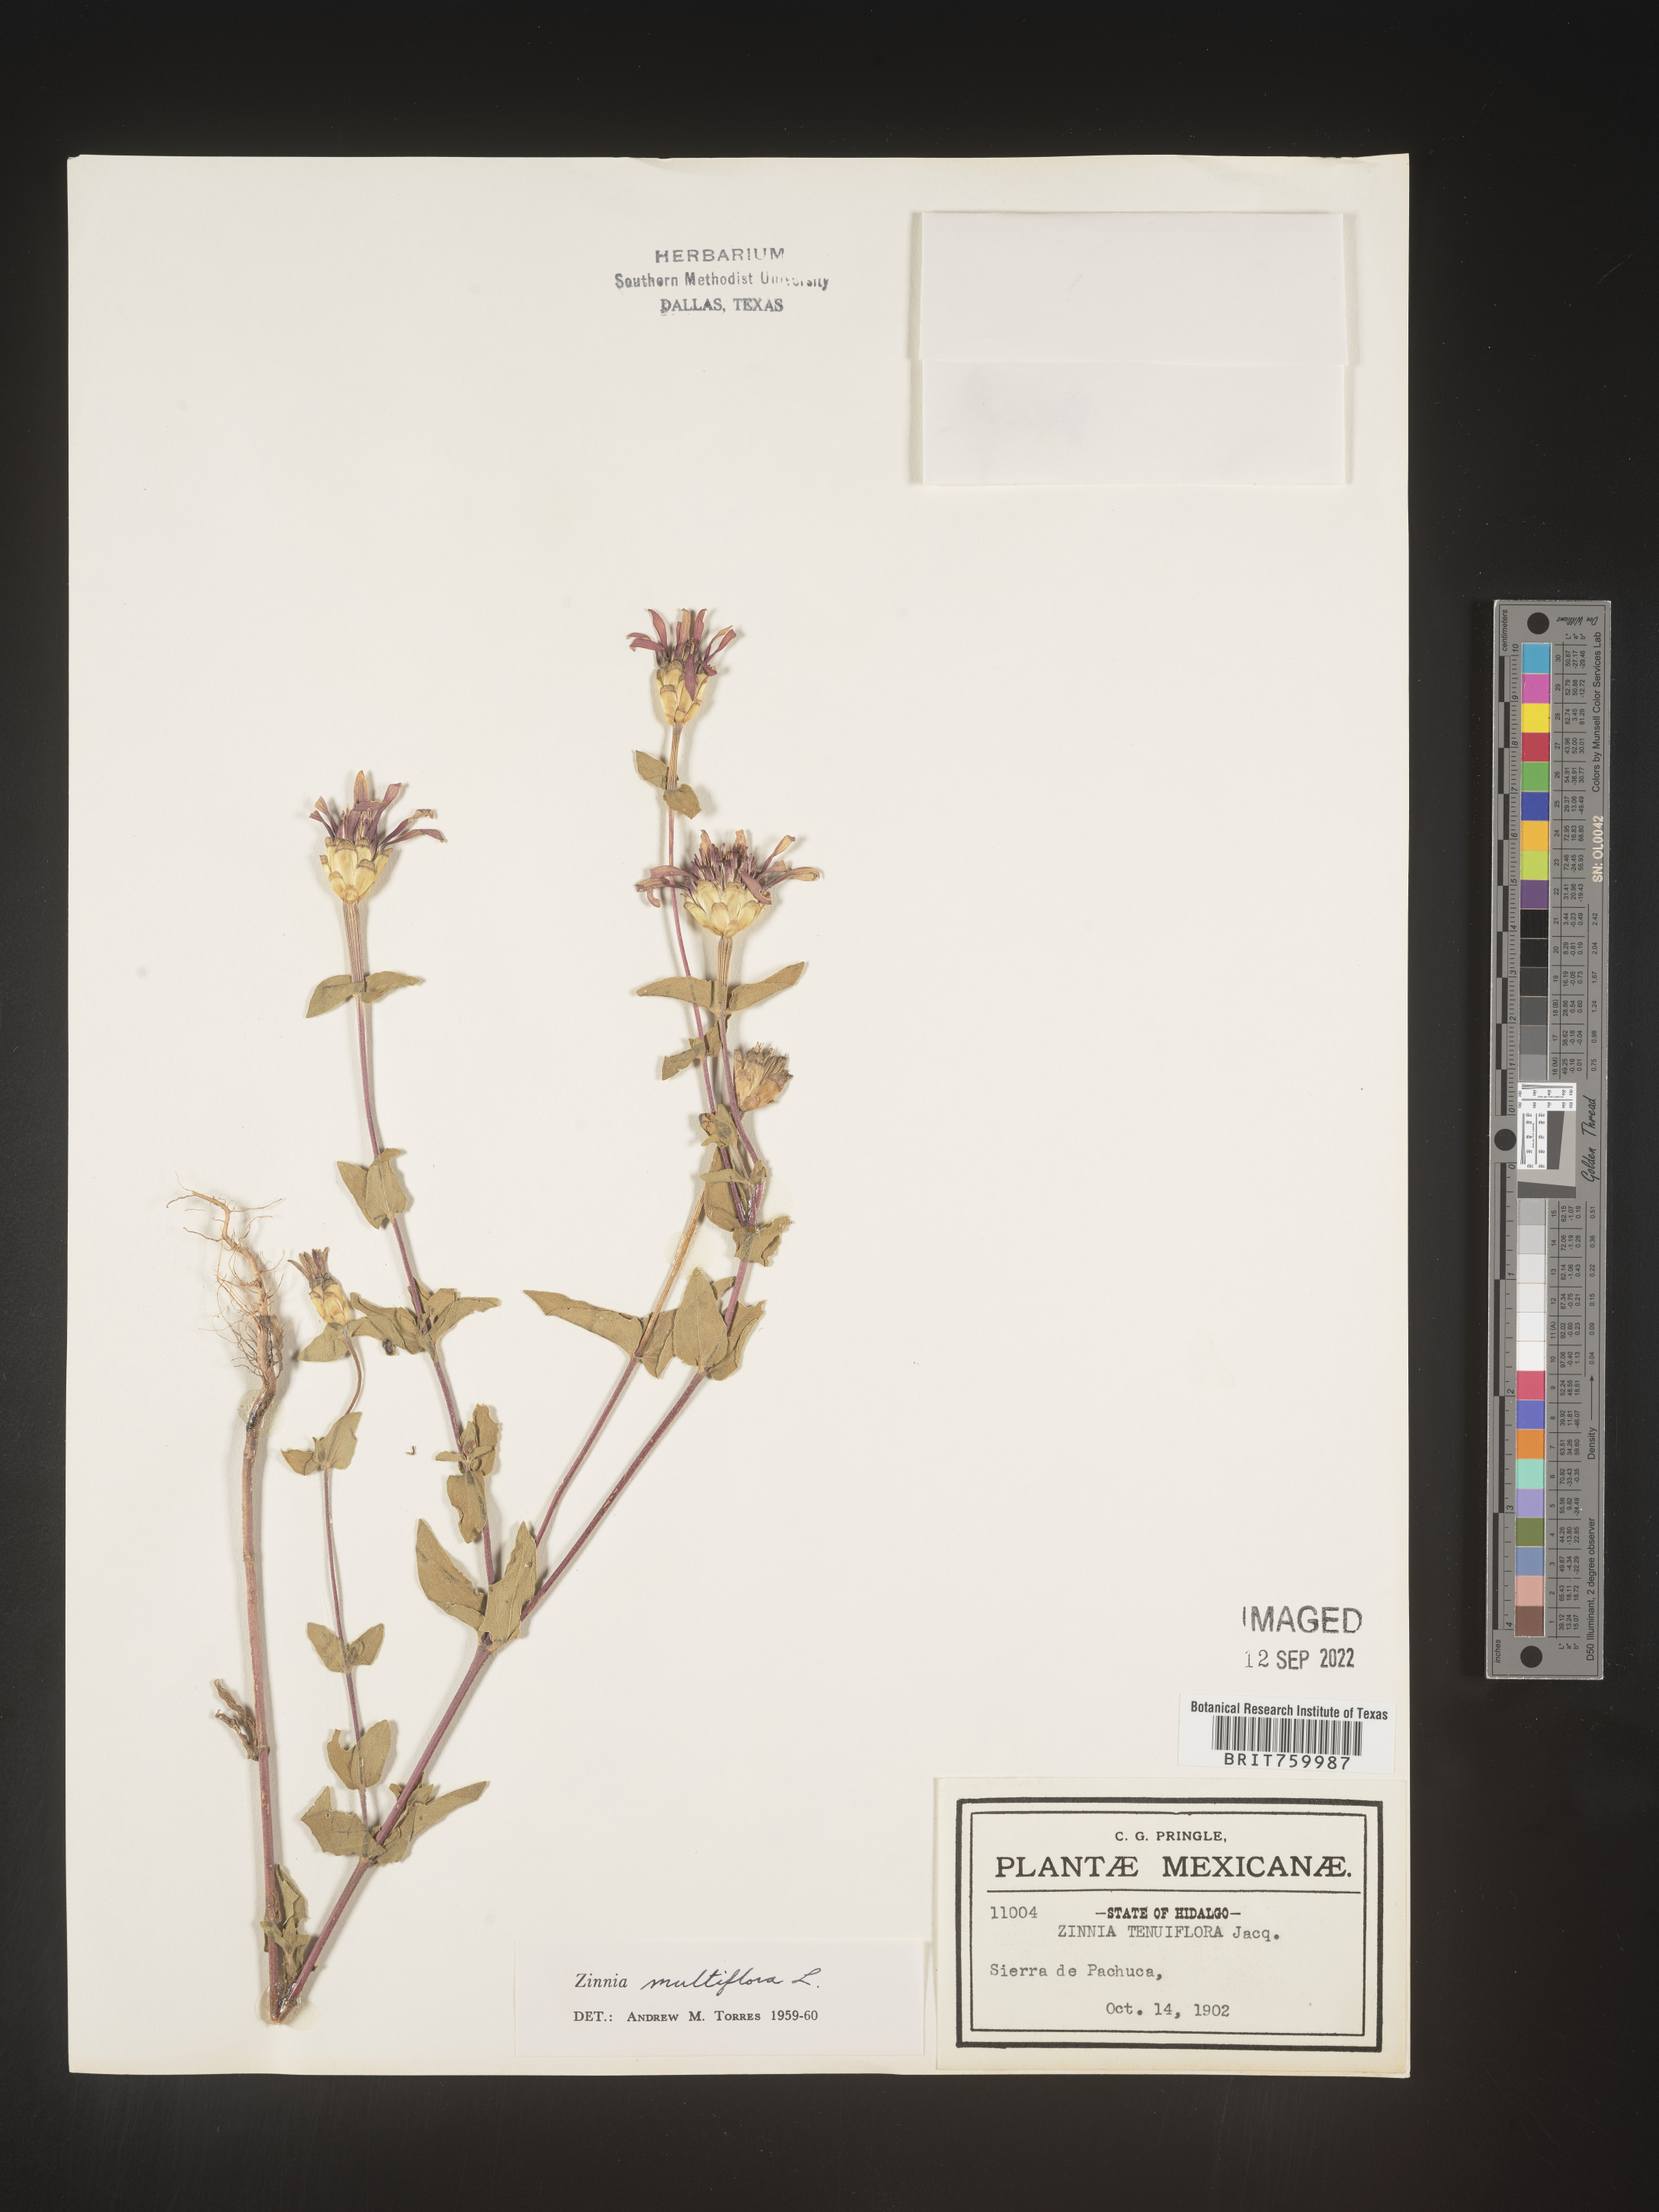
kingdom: Plantae
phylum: Tracheophyta
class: Magnoliopsida
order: Asterales
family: Asteraceae
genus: Zinnia
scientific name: Zinnia
